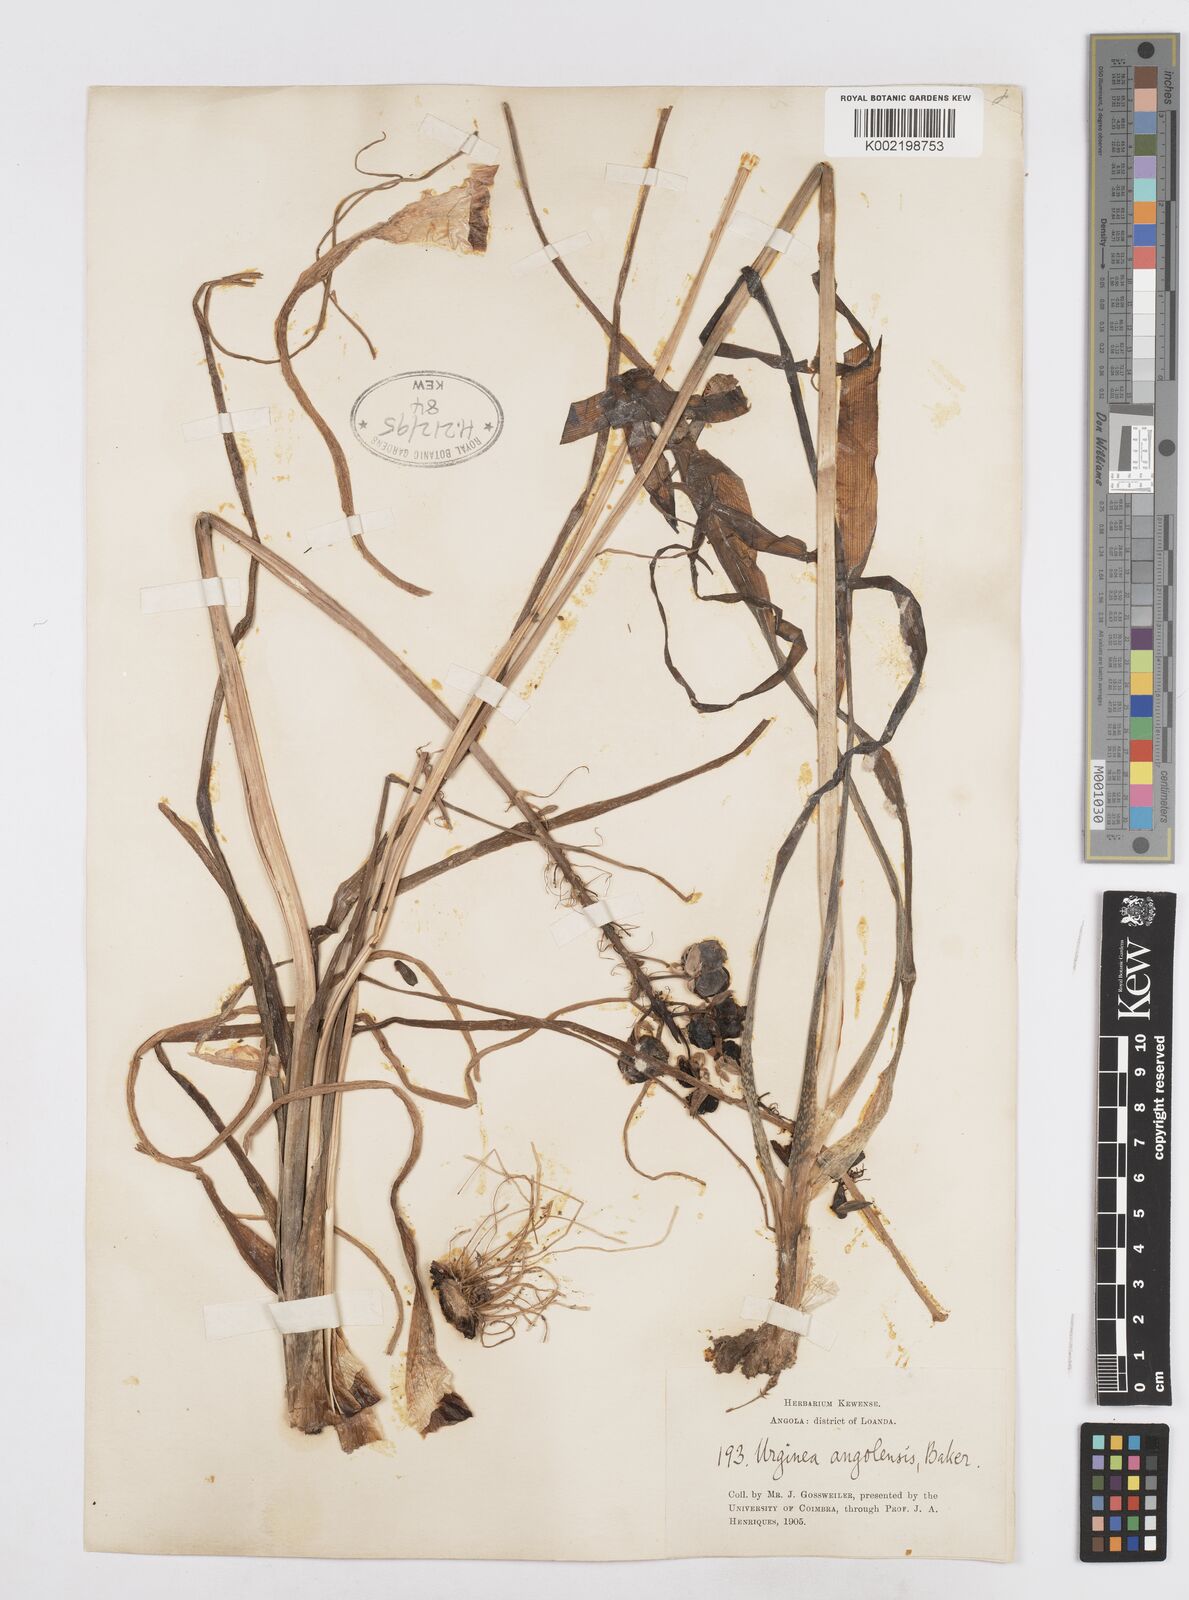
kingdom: Plantae
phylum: Tracheophyta
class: Liliopsida
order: Asparagales
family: Asparagaceae
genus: Drimia
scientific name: Drimia
